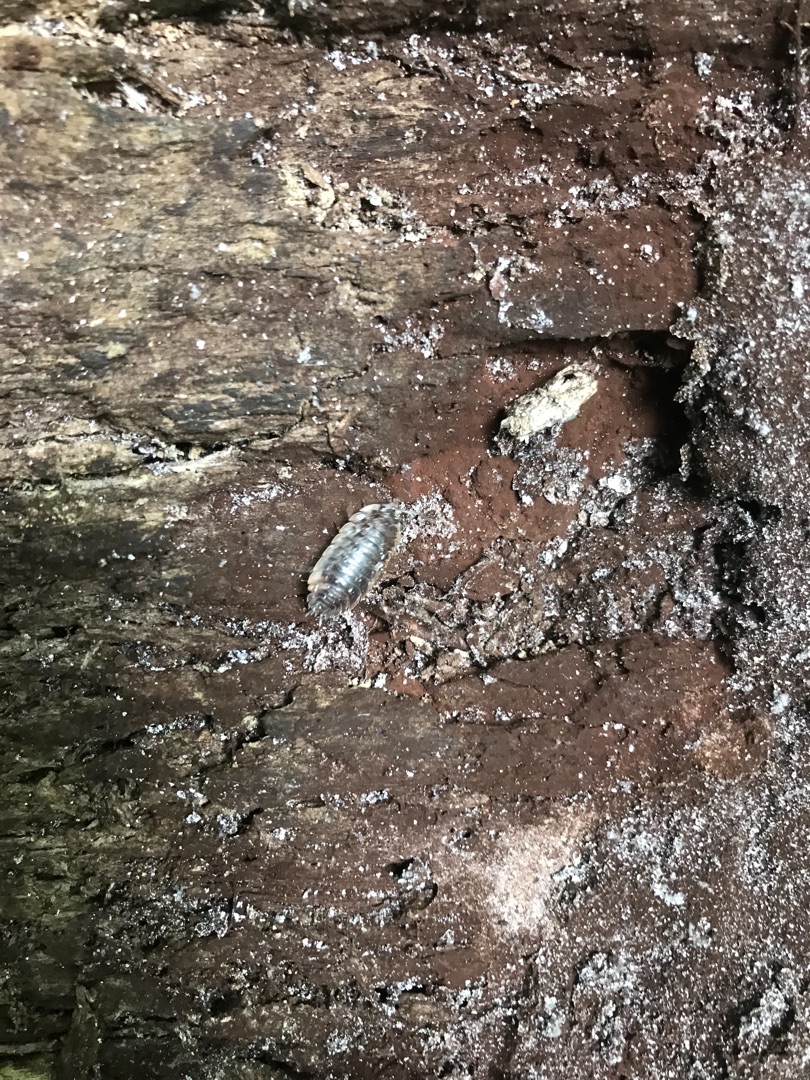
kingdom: Animalia
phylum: Arthropoda
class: Malacostraca
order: Isopoda
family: Oniscidae
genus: Oniscus
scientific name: Oniscus asellus
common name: Glat bænkebider
